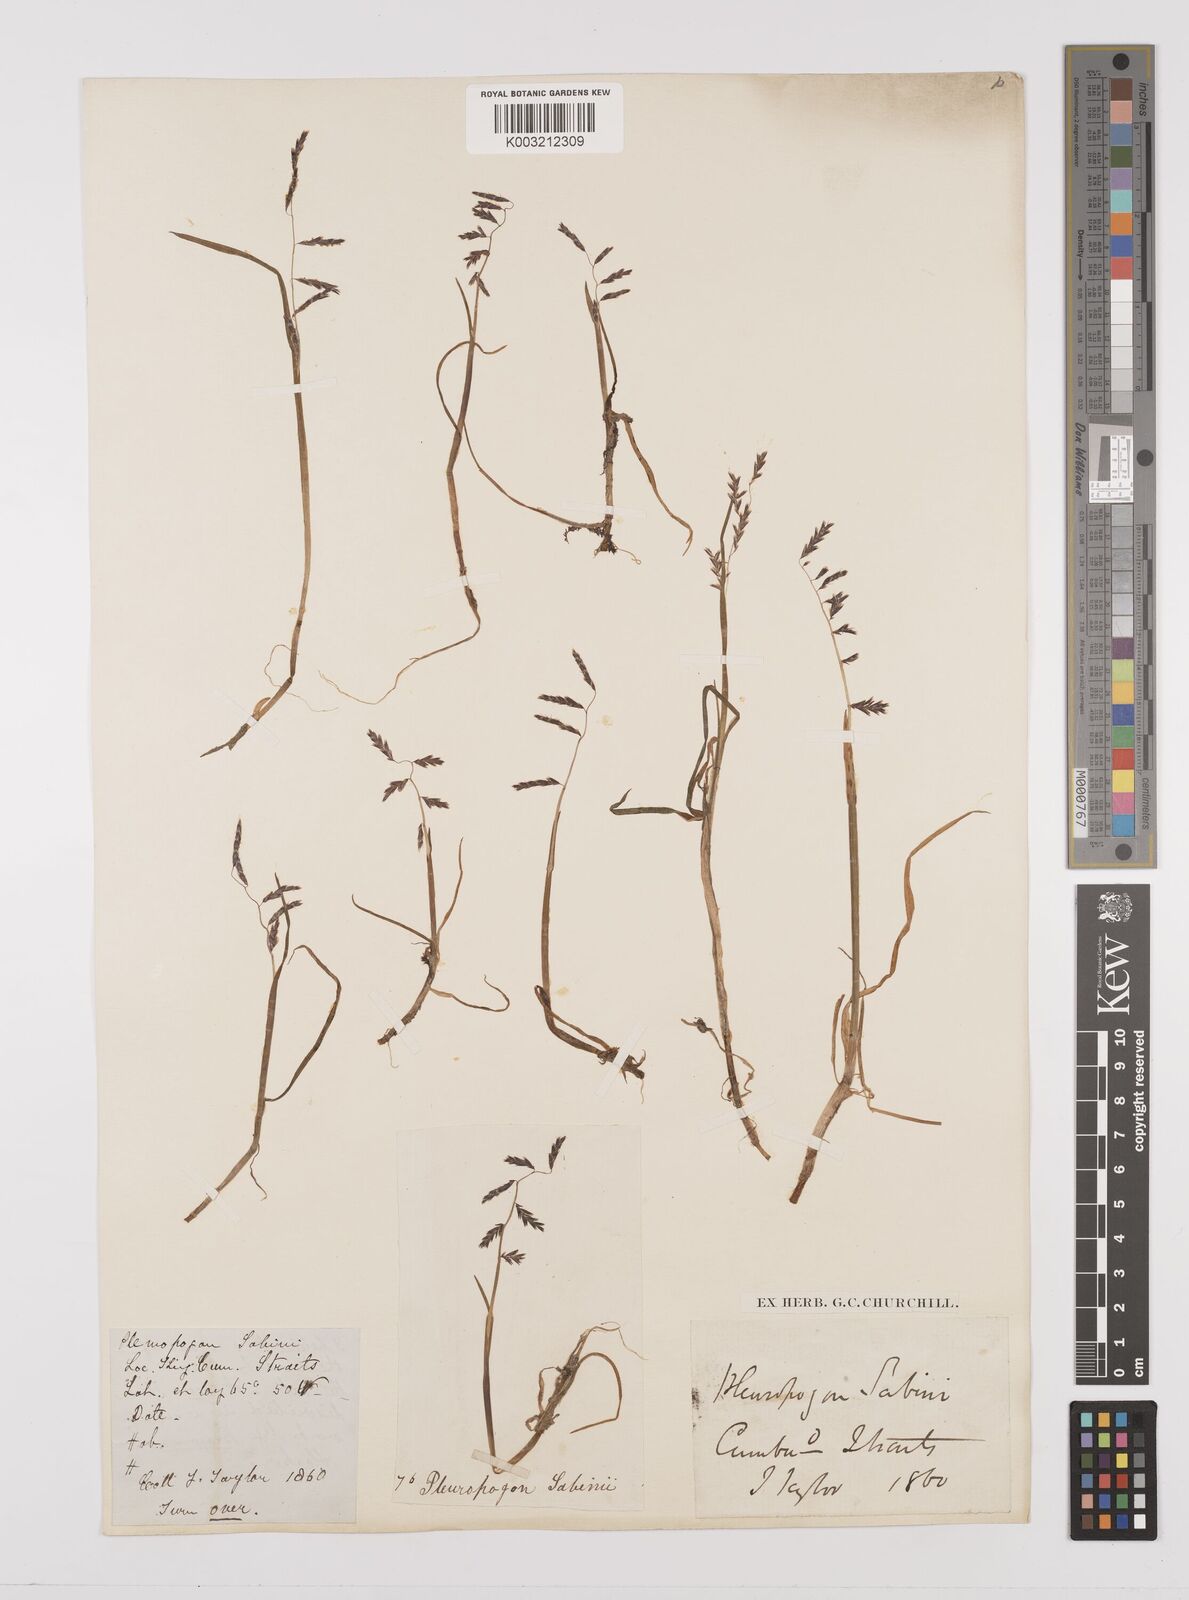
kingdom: Plantae
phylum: Tracheophyta
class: Liliopsida
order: Poales
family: Poaceae
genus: Pleuropogon
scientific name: Pleuropogon sabinei
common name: Sabine's false semaphoregrass
